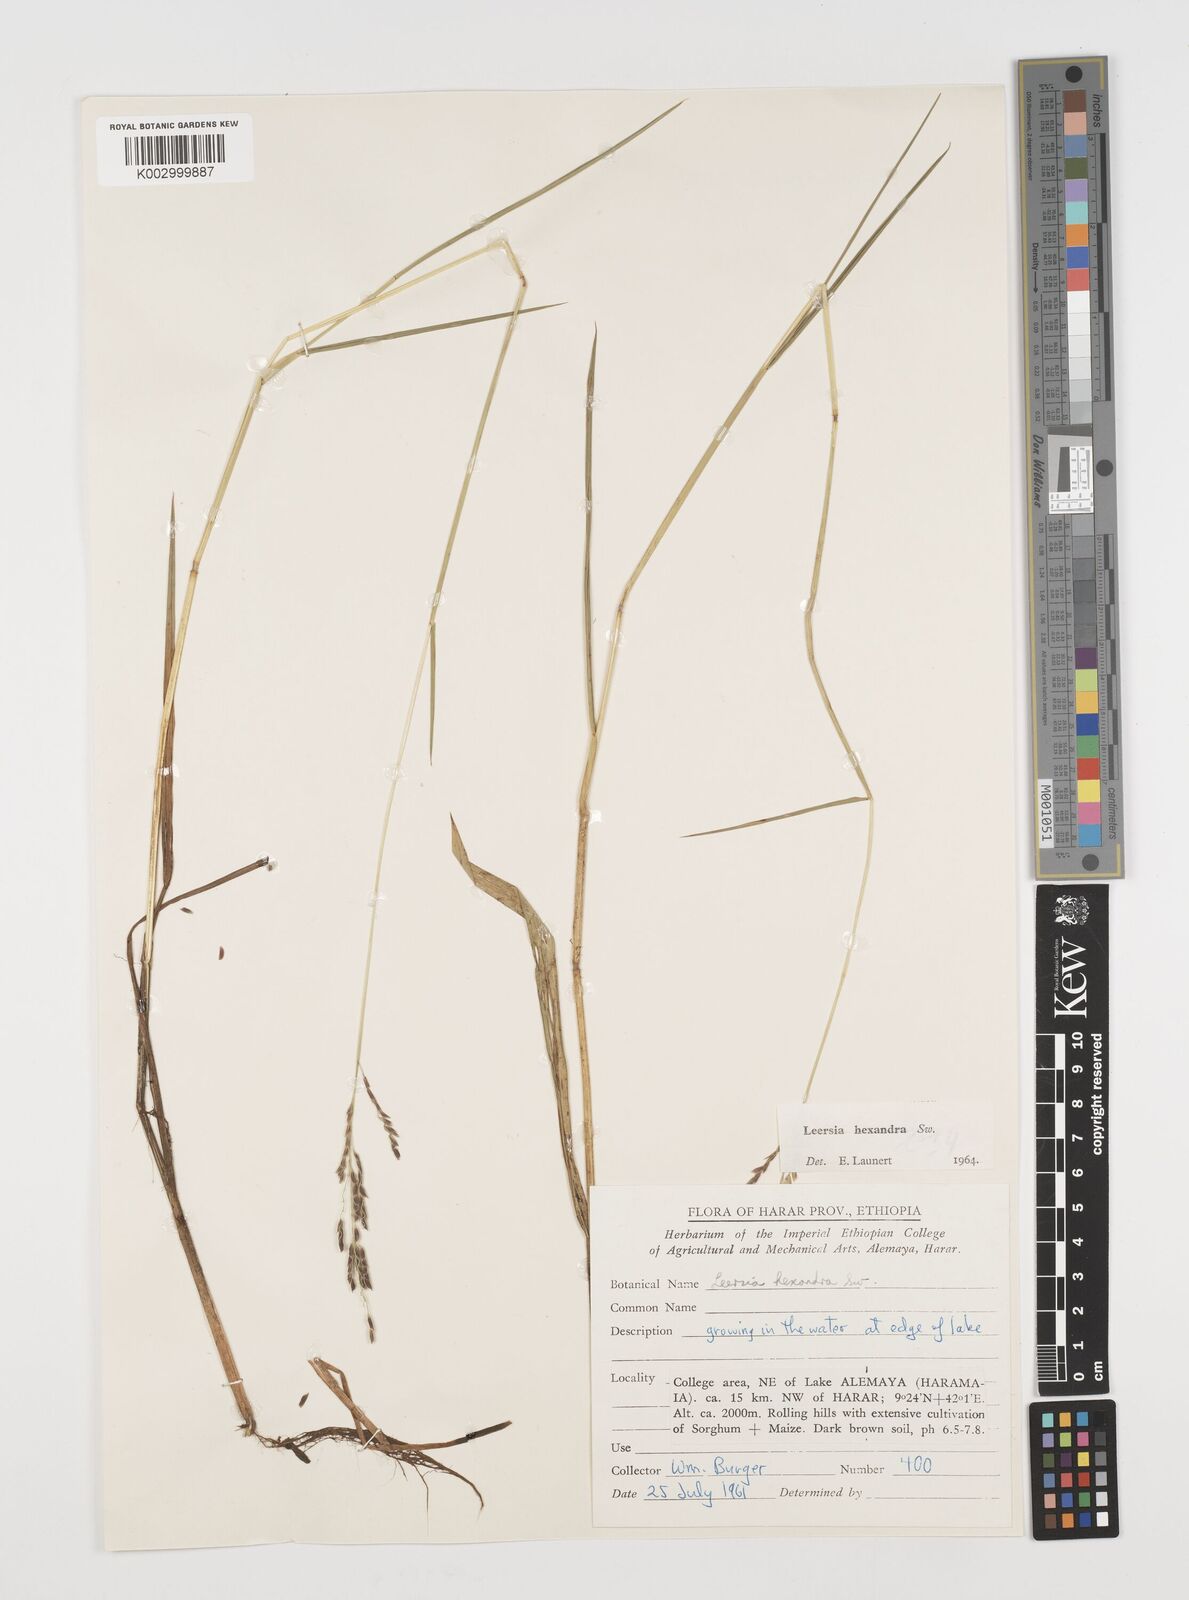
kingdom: Plantae
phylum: Tracheophyta
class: Liliopsida
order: Poales
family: Poaceae
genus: Leersia
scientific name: Leersia hexandra
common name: Southern cut grass
